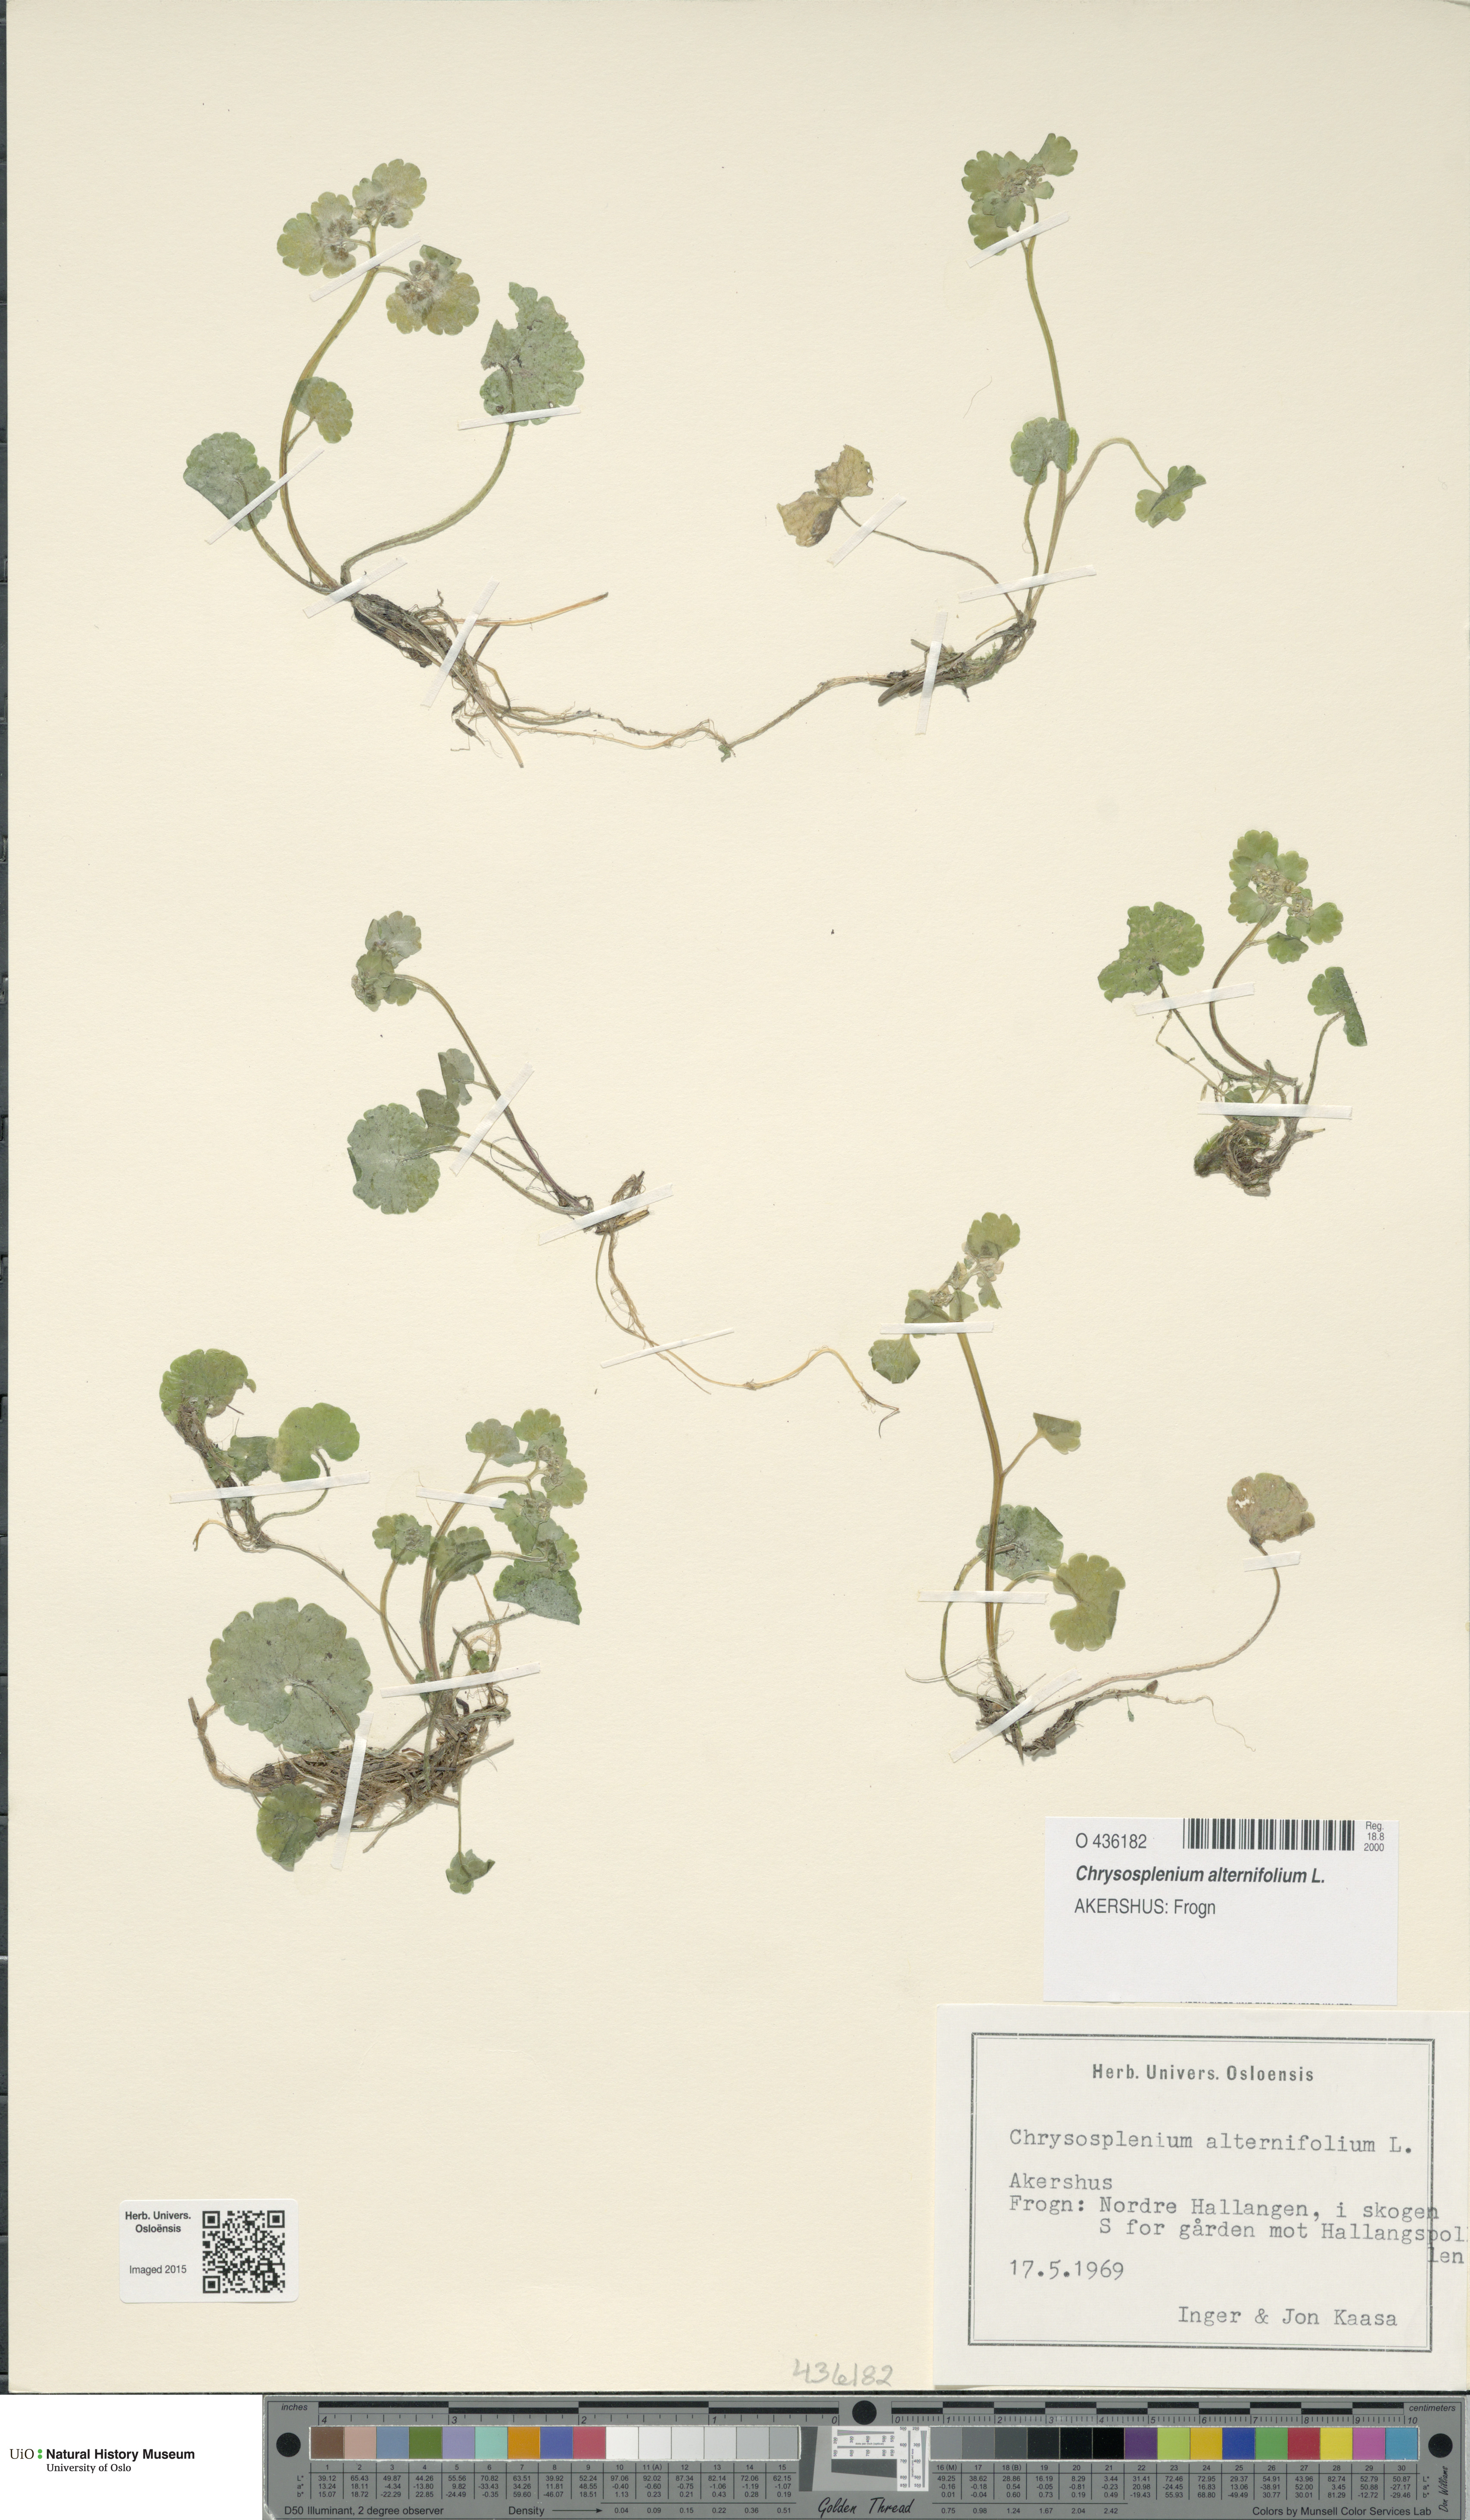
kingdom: Plantae
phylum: Tracheophyta
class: Magnoliopsida
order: Saxifragales
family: Saxifragaceae
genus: Chrysosplenium
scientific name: Chrysosplenium alternifolium
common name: Alternate-leaved golden-saxifrage
